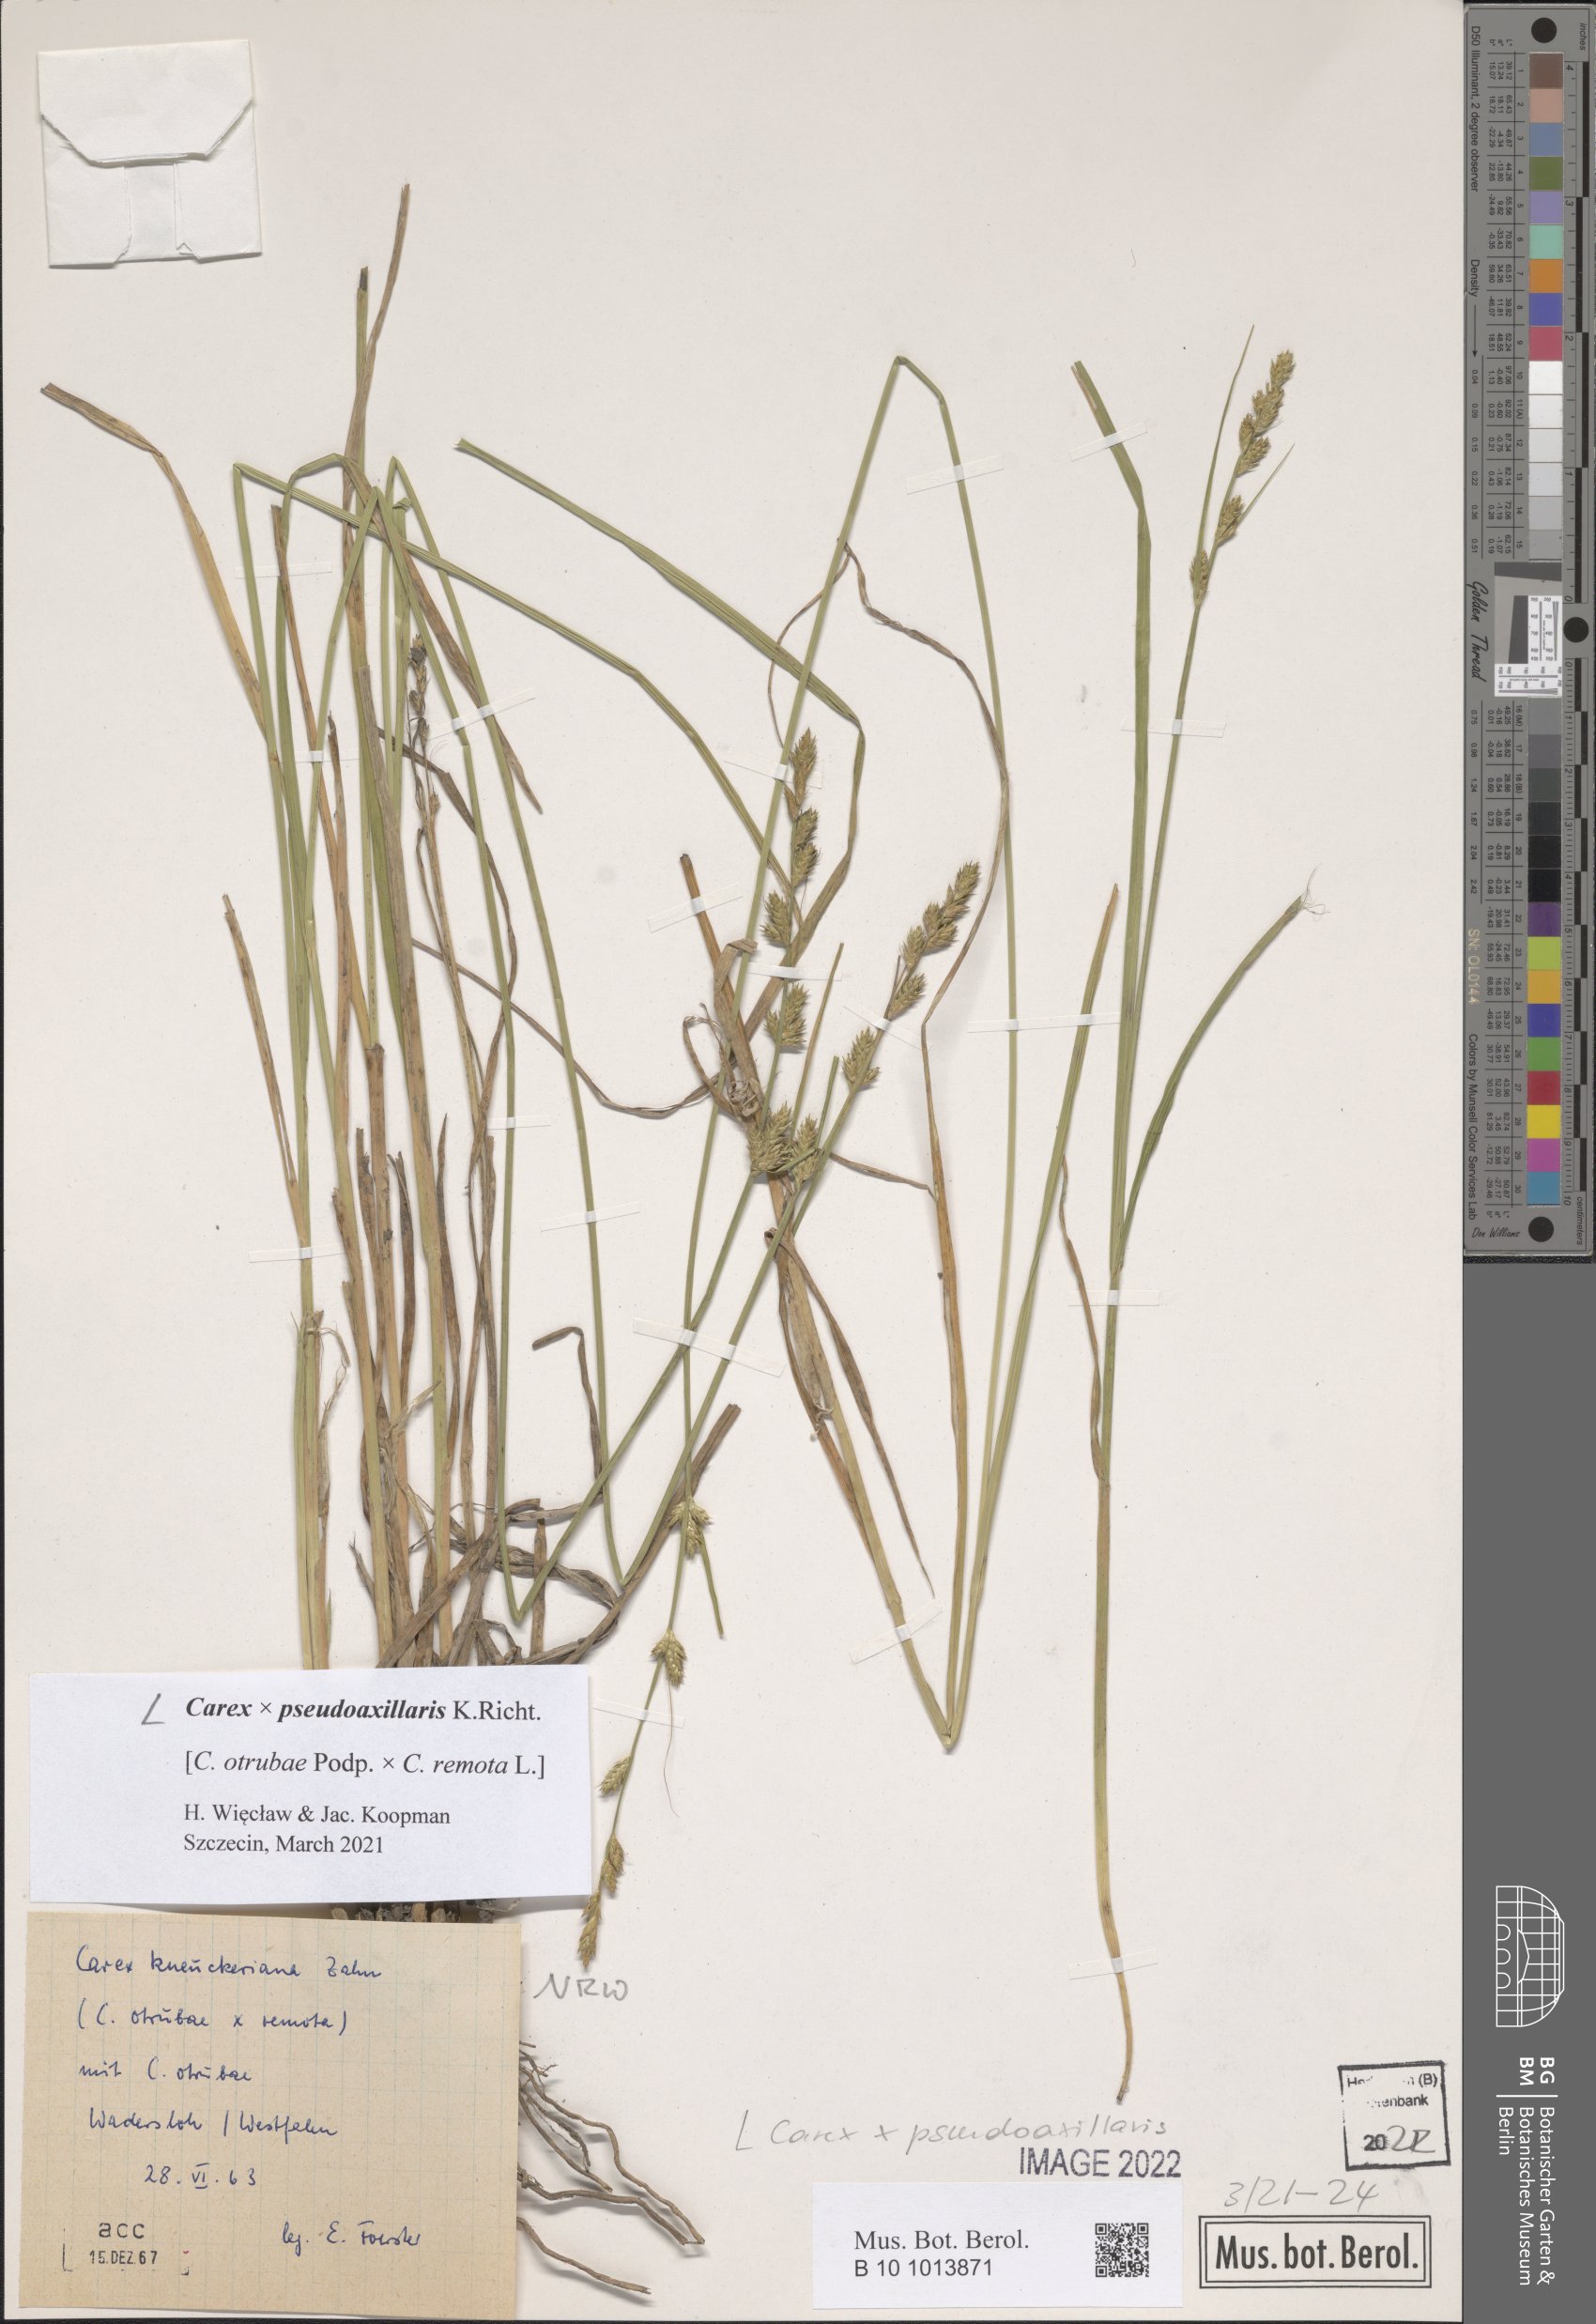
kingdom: Plantae
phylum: Tracheophyta
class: Liliopsida
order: Poales
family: Cyperaceae
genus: Carex
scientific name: Carex pseudoaxillaris
